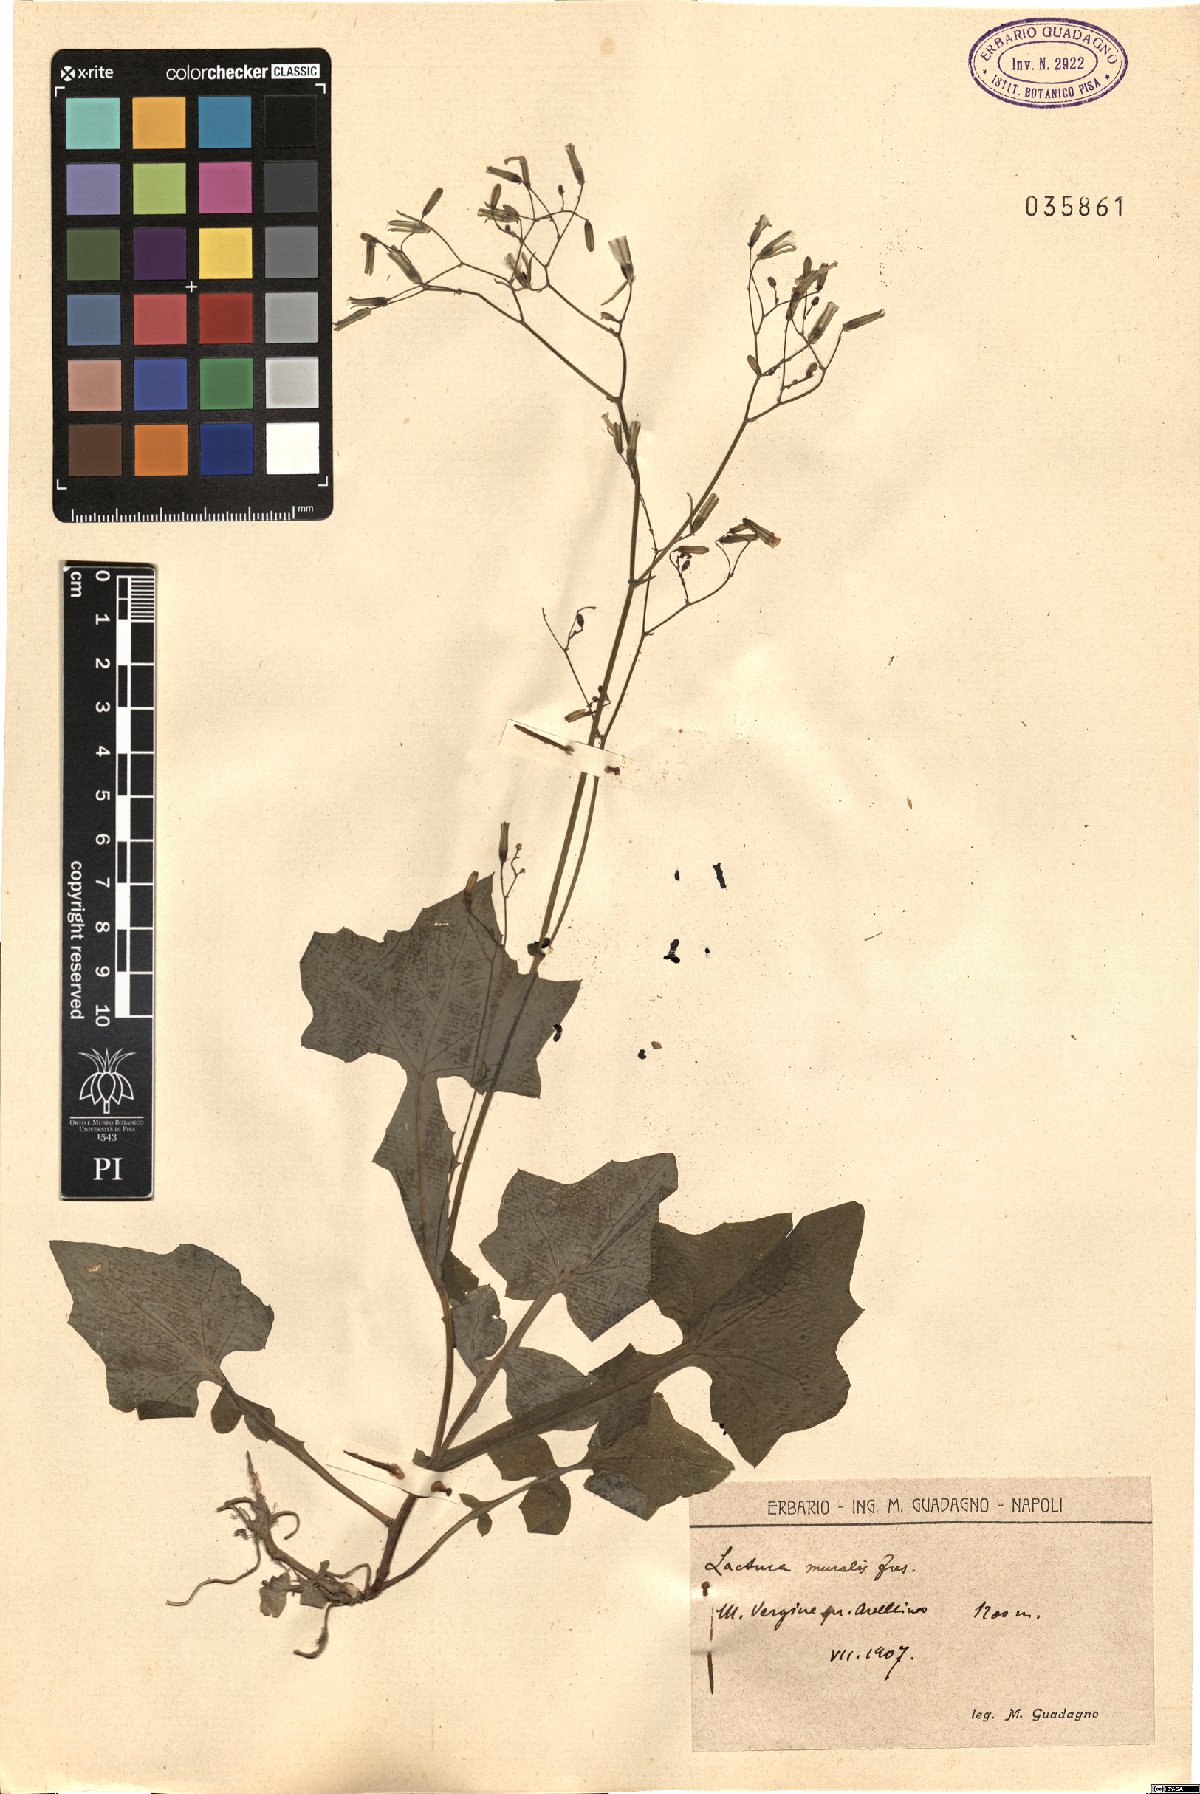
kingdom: Plantae
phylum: Tracheophyta
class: Magnoliopsida
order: Asterales
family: Asteraceae
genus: Mycelis
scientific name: Mycelis muralis
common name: Wall lettuce
